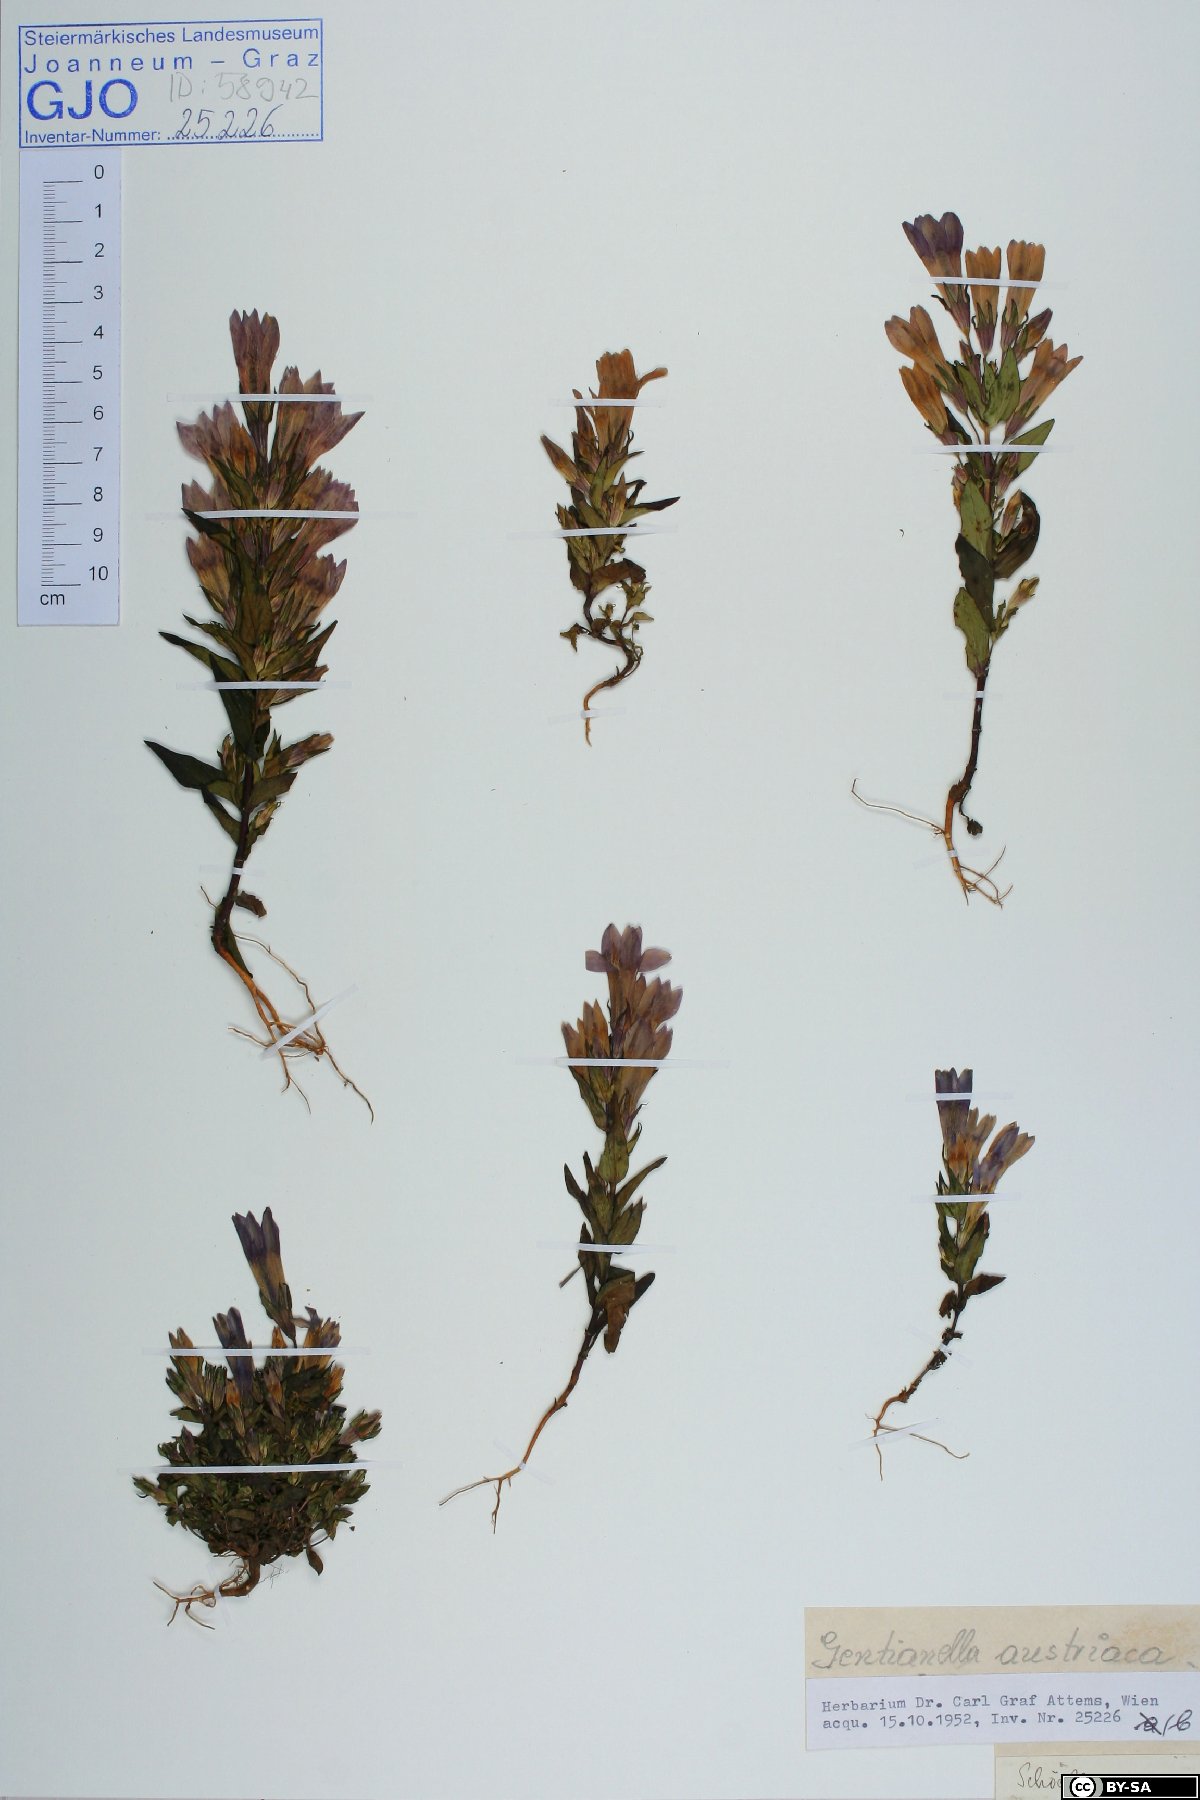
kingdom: Plantae
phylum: Tracheophyta
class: Magnoliopsida
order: Gentianales
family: Gentianaceae
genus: Gentianella
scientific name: Gentianella austriaca
